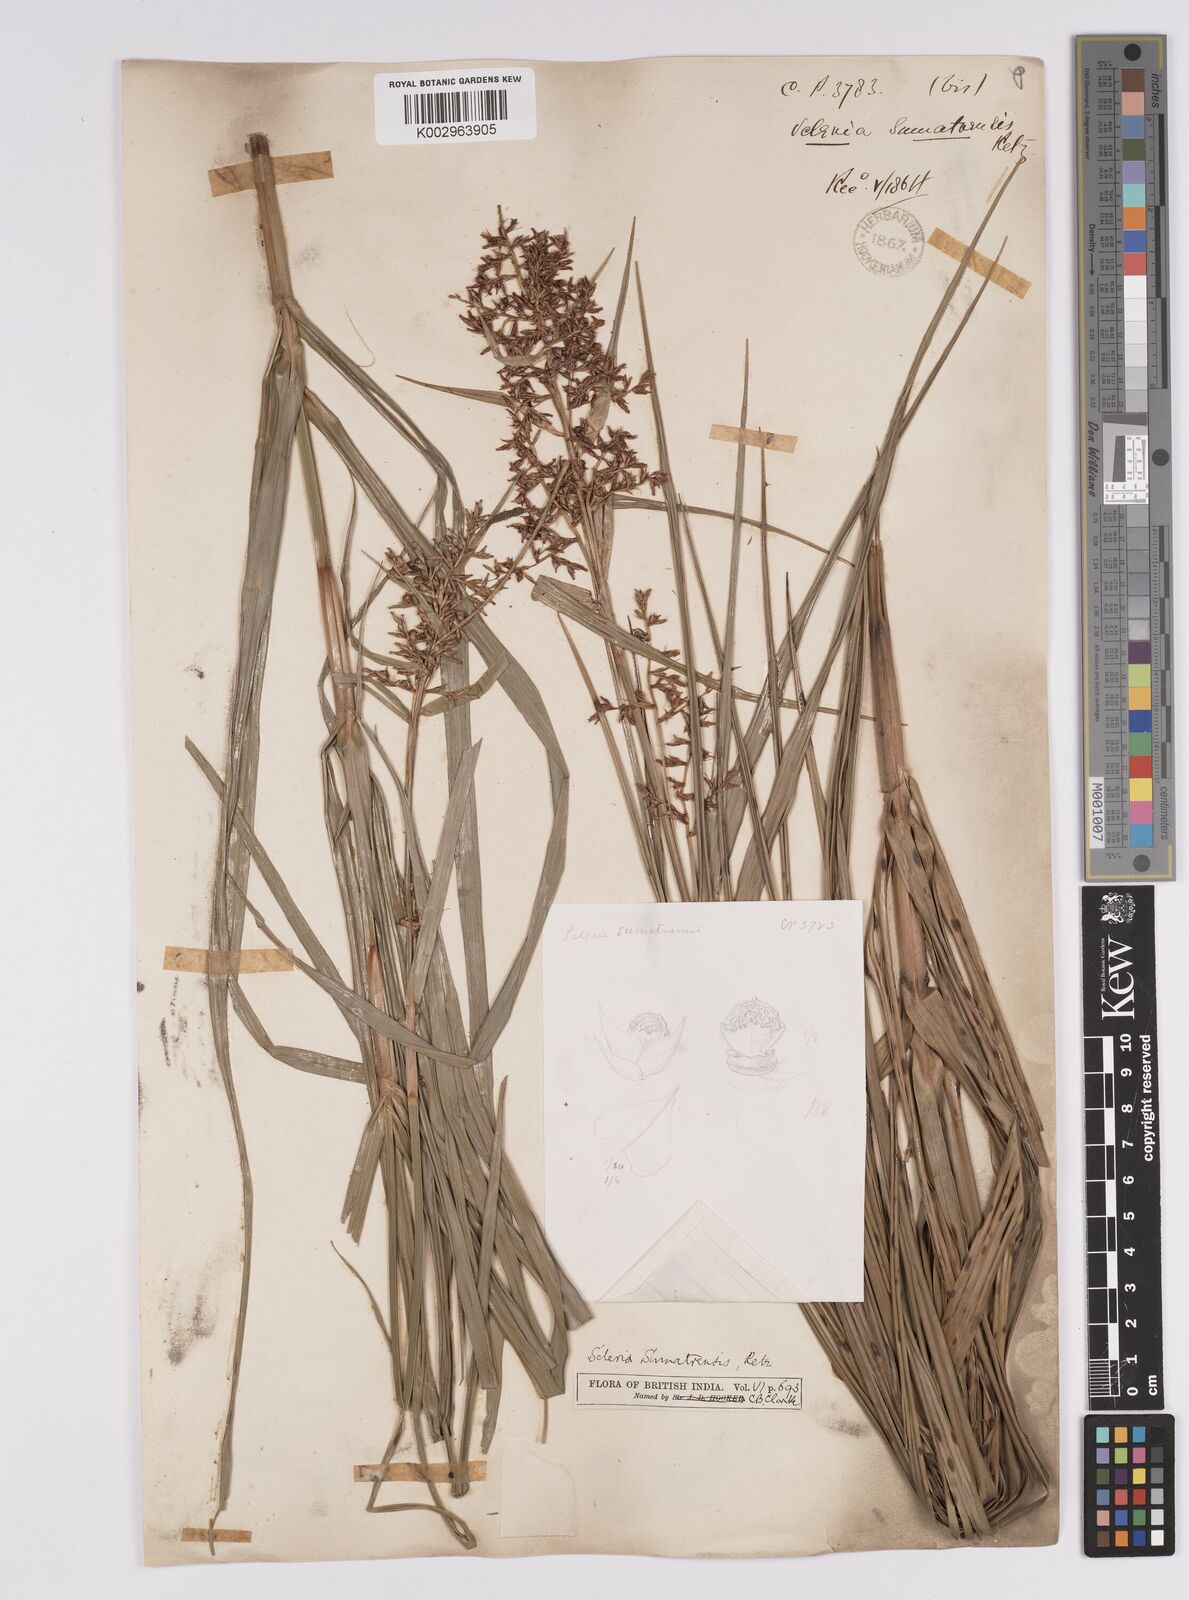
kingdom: Plantae
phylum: Tracheophyta
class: Liliopsida
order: Poales
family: Cyperaceae
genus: Scleria
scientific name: Scleria sumatrensis
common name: Sumatran scleria
